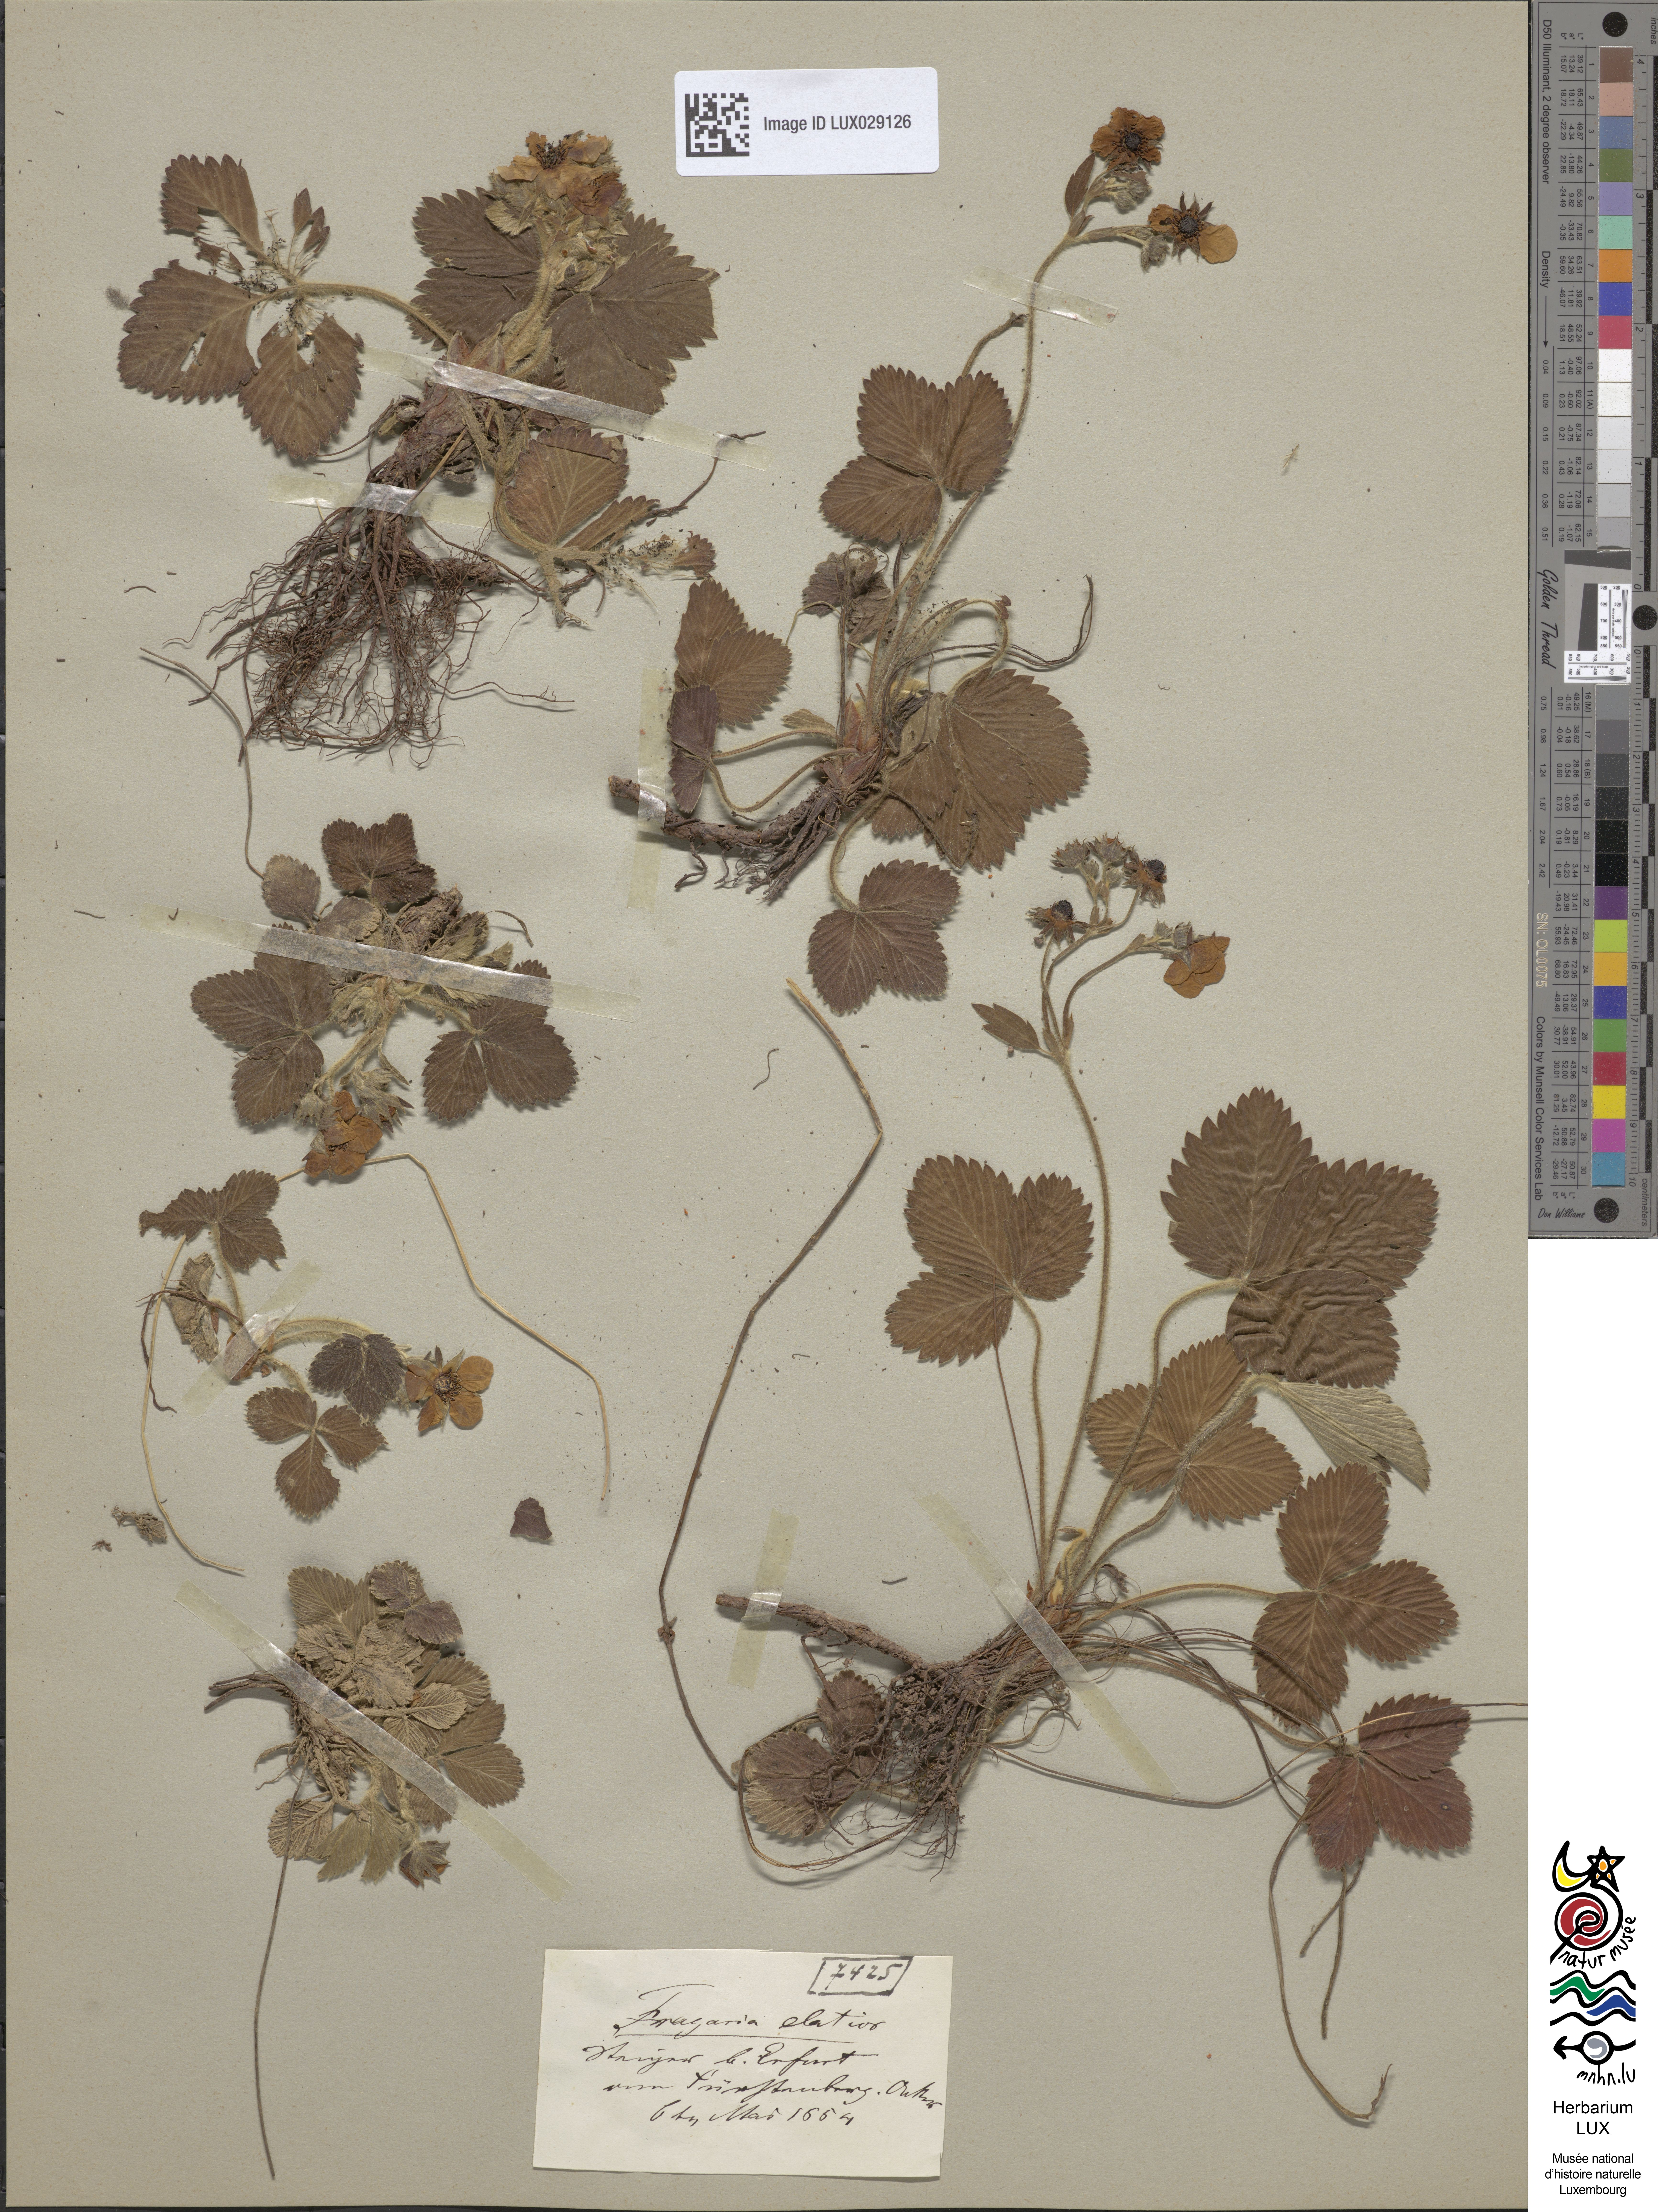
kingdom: Plantae
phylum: Tracheophyta
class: Magnoliopsida
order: Rosales
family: Rosaceae
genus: Fragaria
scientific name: Fragaria moschata
